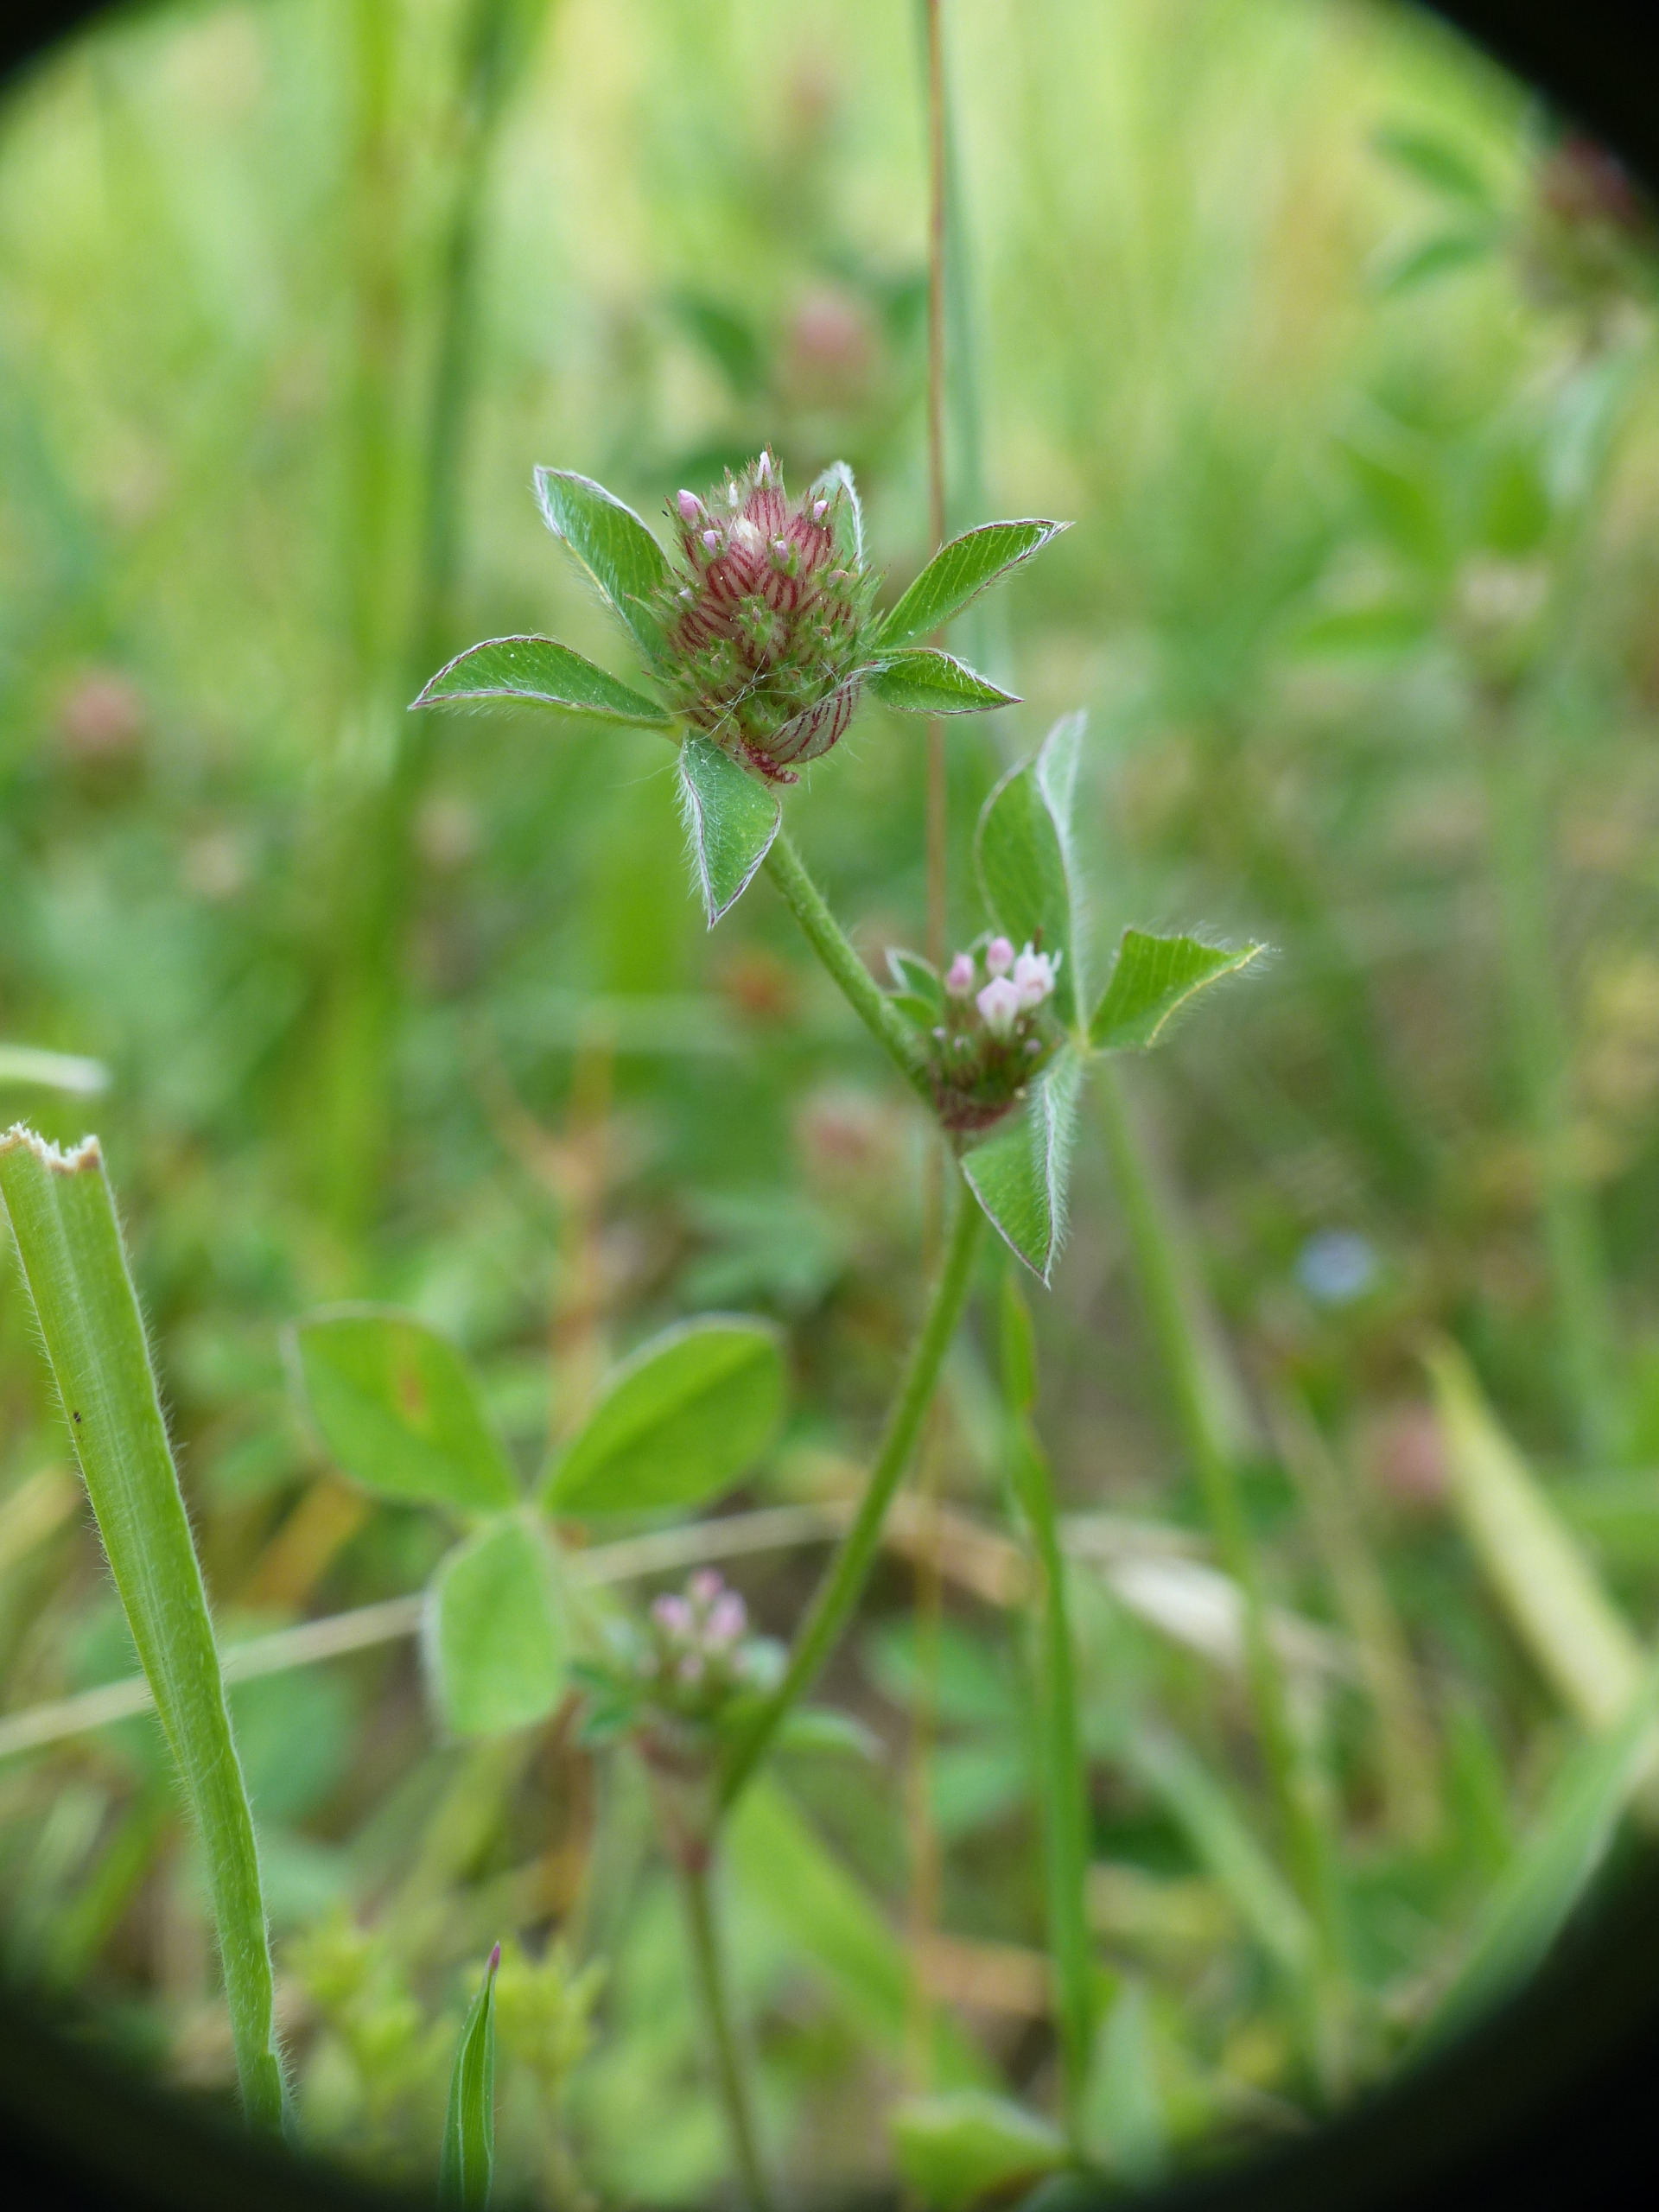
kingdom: Plantae
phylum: Tracheophyta
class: Magnoliopsida
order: Fabales
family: Fabaceae
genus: Trifolium
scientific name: Trifolium striatum
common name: Stribet kløver
